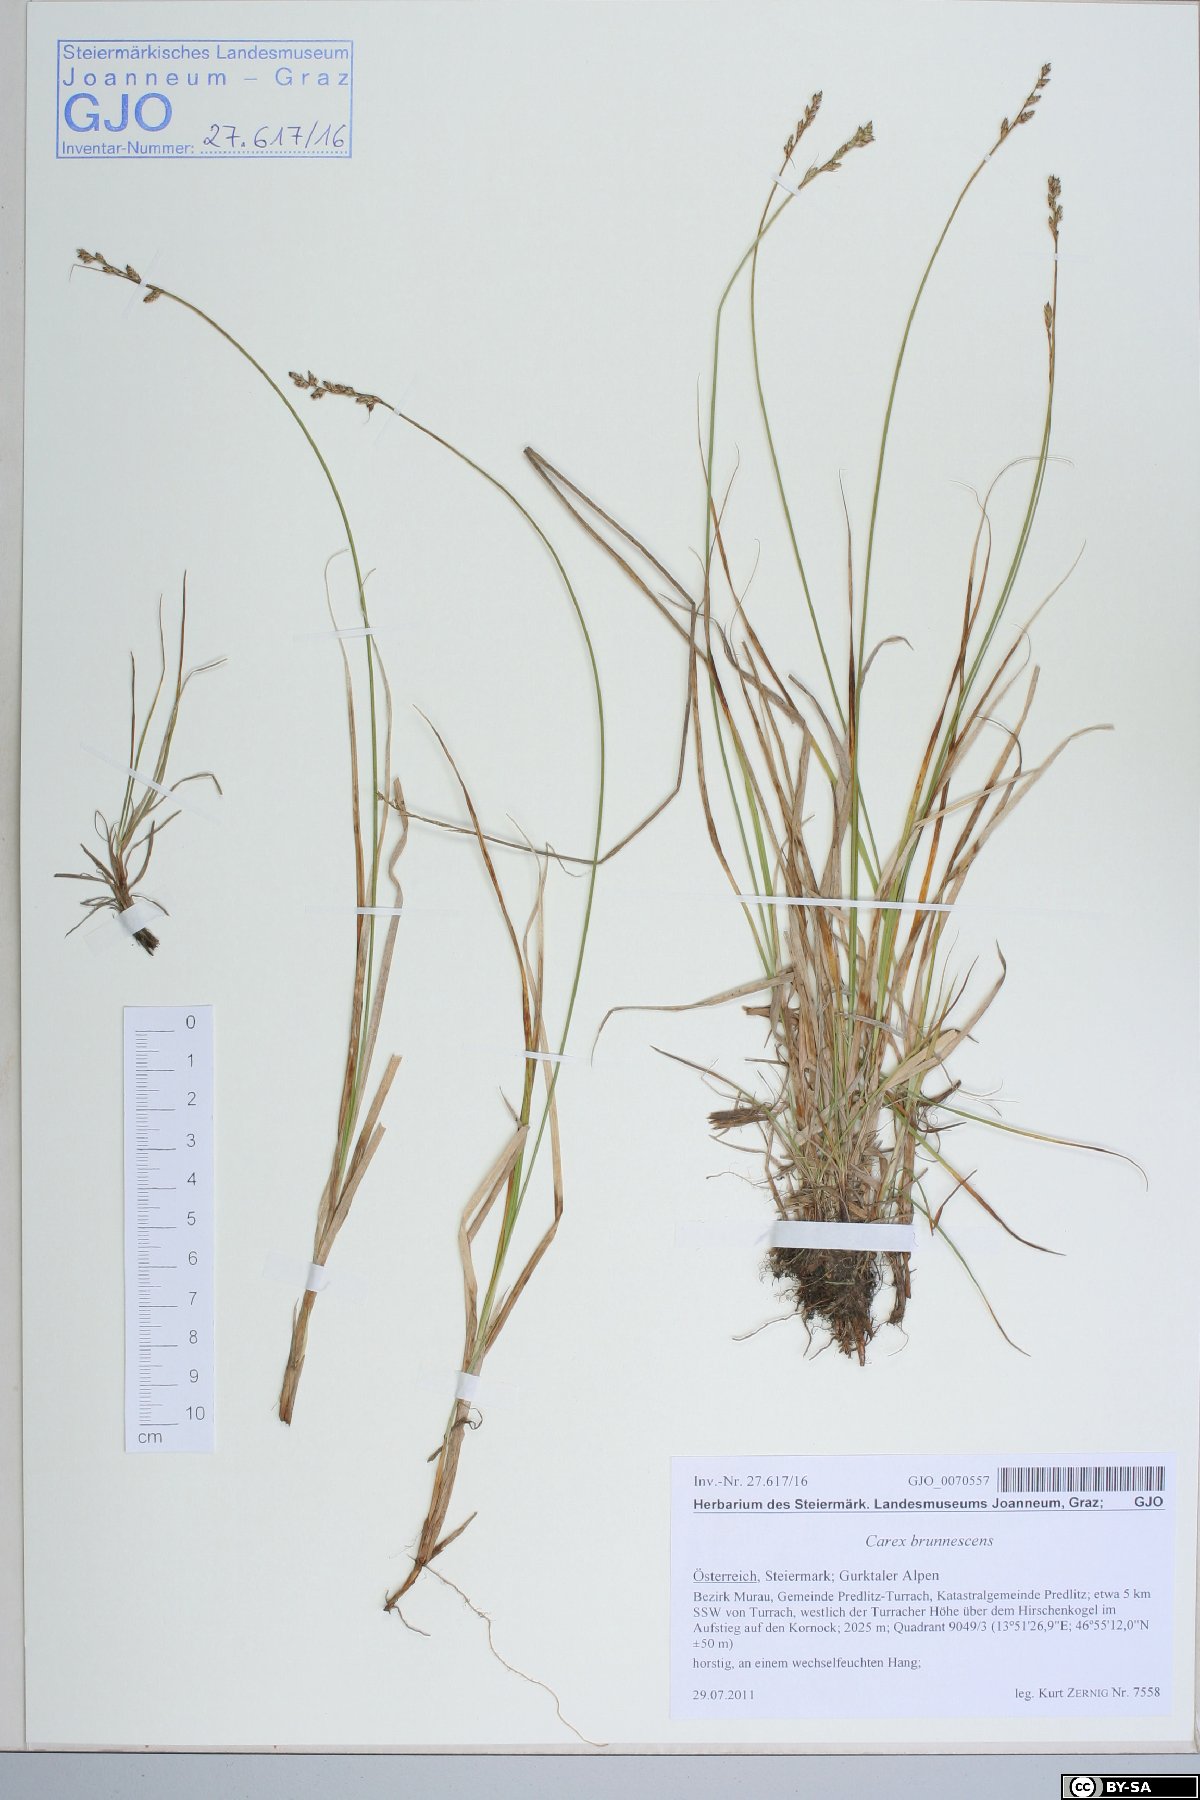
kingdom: Plantae
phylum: Tracheophyta
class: Liliopsida
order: Poales
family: Cyperaceae
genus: Carex
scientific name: Carex brunnescens
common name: Brown sedge
